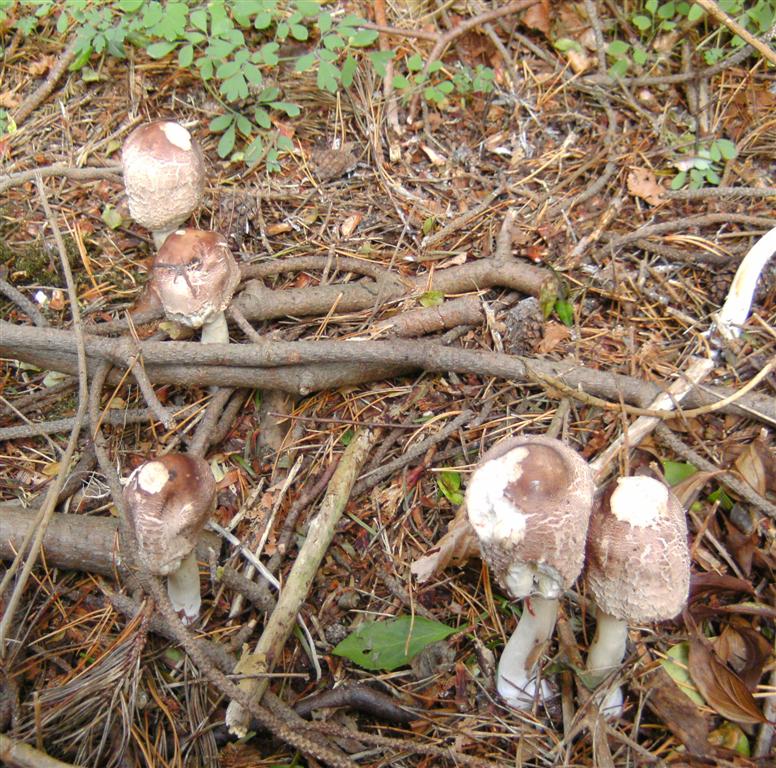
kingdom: Fungi
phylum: Basidiomycota
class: Agaricomycetes
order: Agaricales
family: Agaricaceae
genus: Chlorophyllum
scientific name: Chlorophyllum olivieri
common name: almindelig rabarberhat
